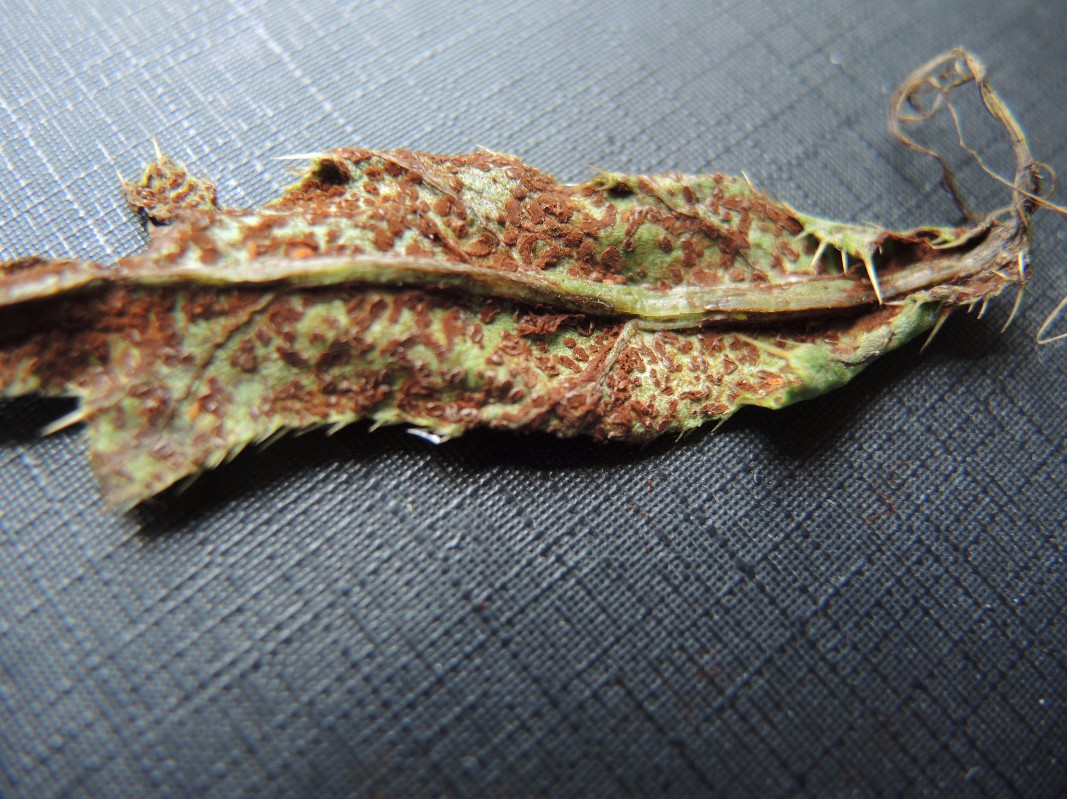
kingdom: Fungi
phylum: Basidiomycota
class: Pucciniomycetes
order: Pucciniales
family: Pucciniaceae
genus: Puccinia
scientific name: Puccinia suaveolens
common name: tidsel-tvecellerust
